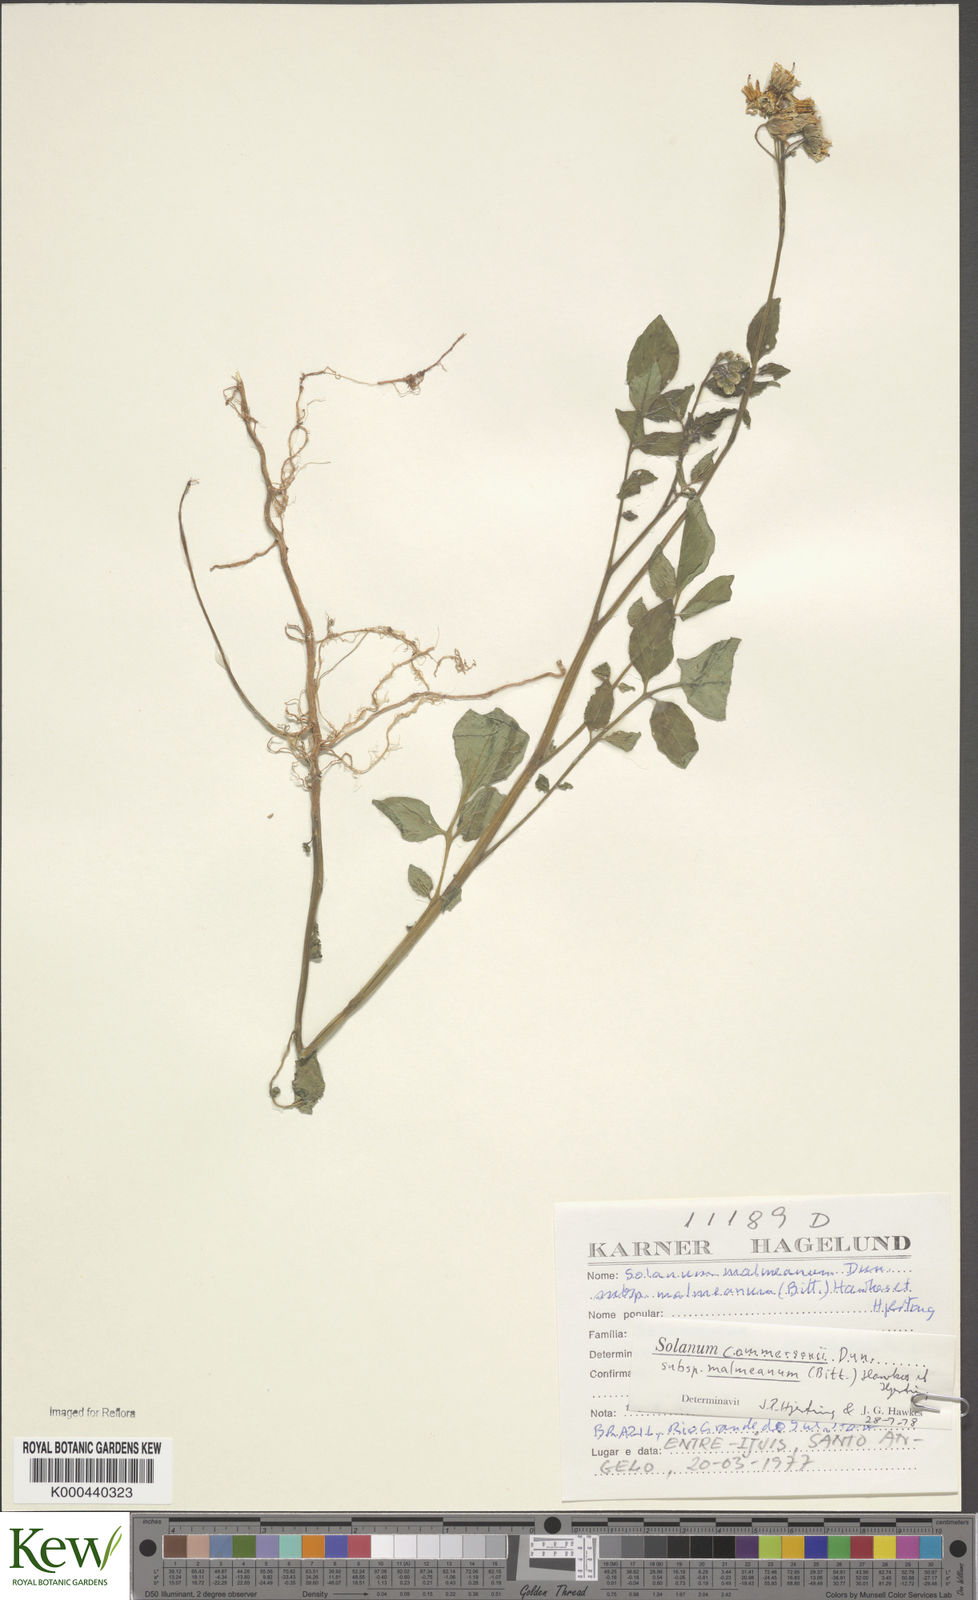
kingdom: Plantae
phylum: Tracheophyta
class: Magnoliopsida
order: Solanales
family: Solanaceae
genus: Solanum
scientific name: Solanum commersonii
